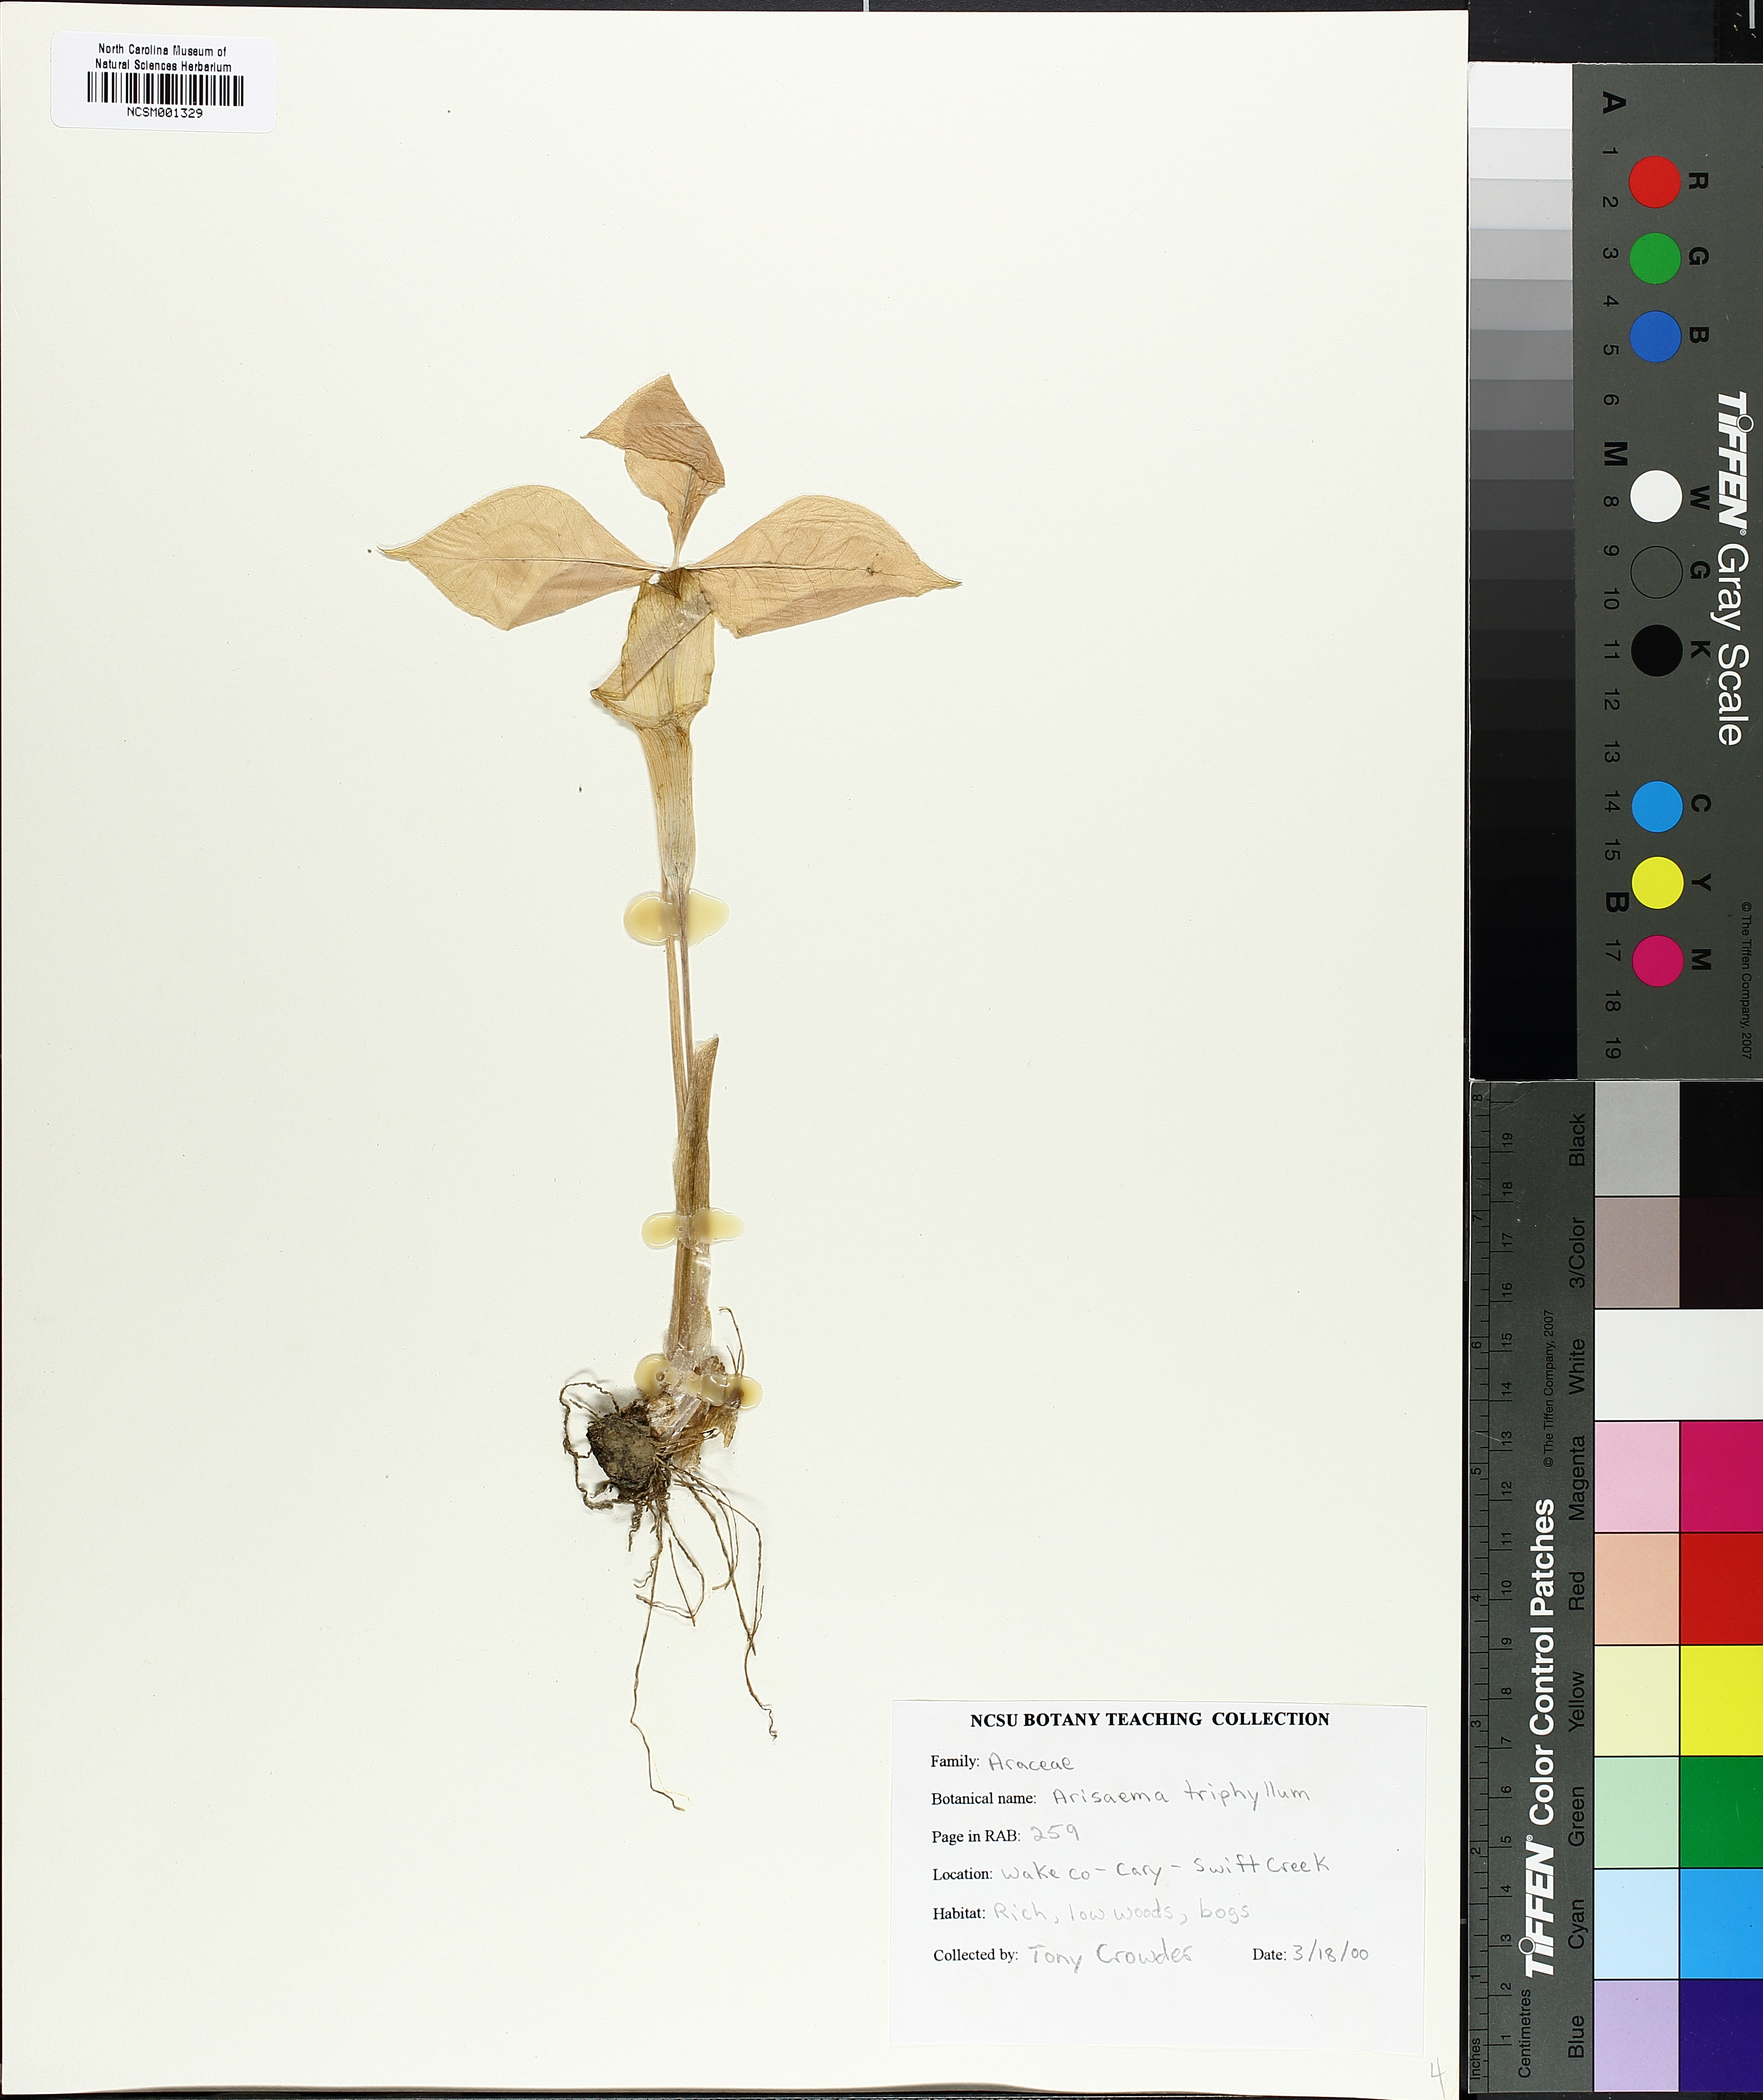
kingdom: Plantae
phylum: Tracheophyta
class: Liliopsida
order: Alismatales
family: Araceae
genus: Arisaema
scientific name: Arisaema triphyllum
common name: Jack-in-the-pulpit
